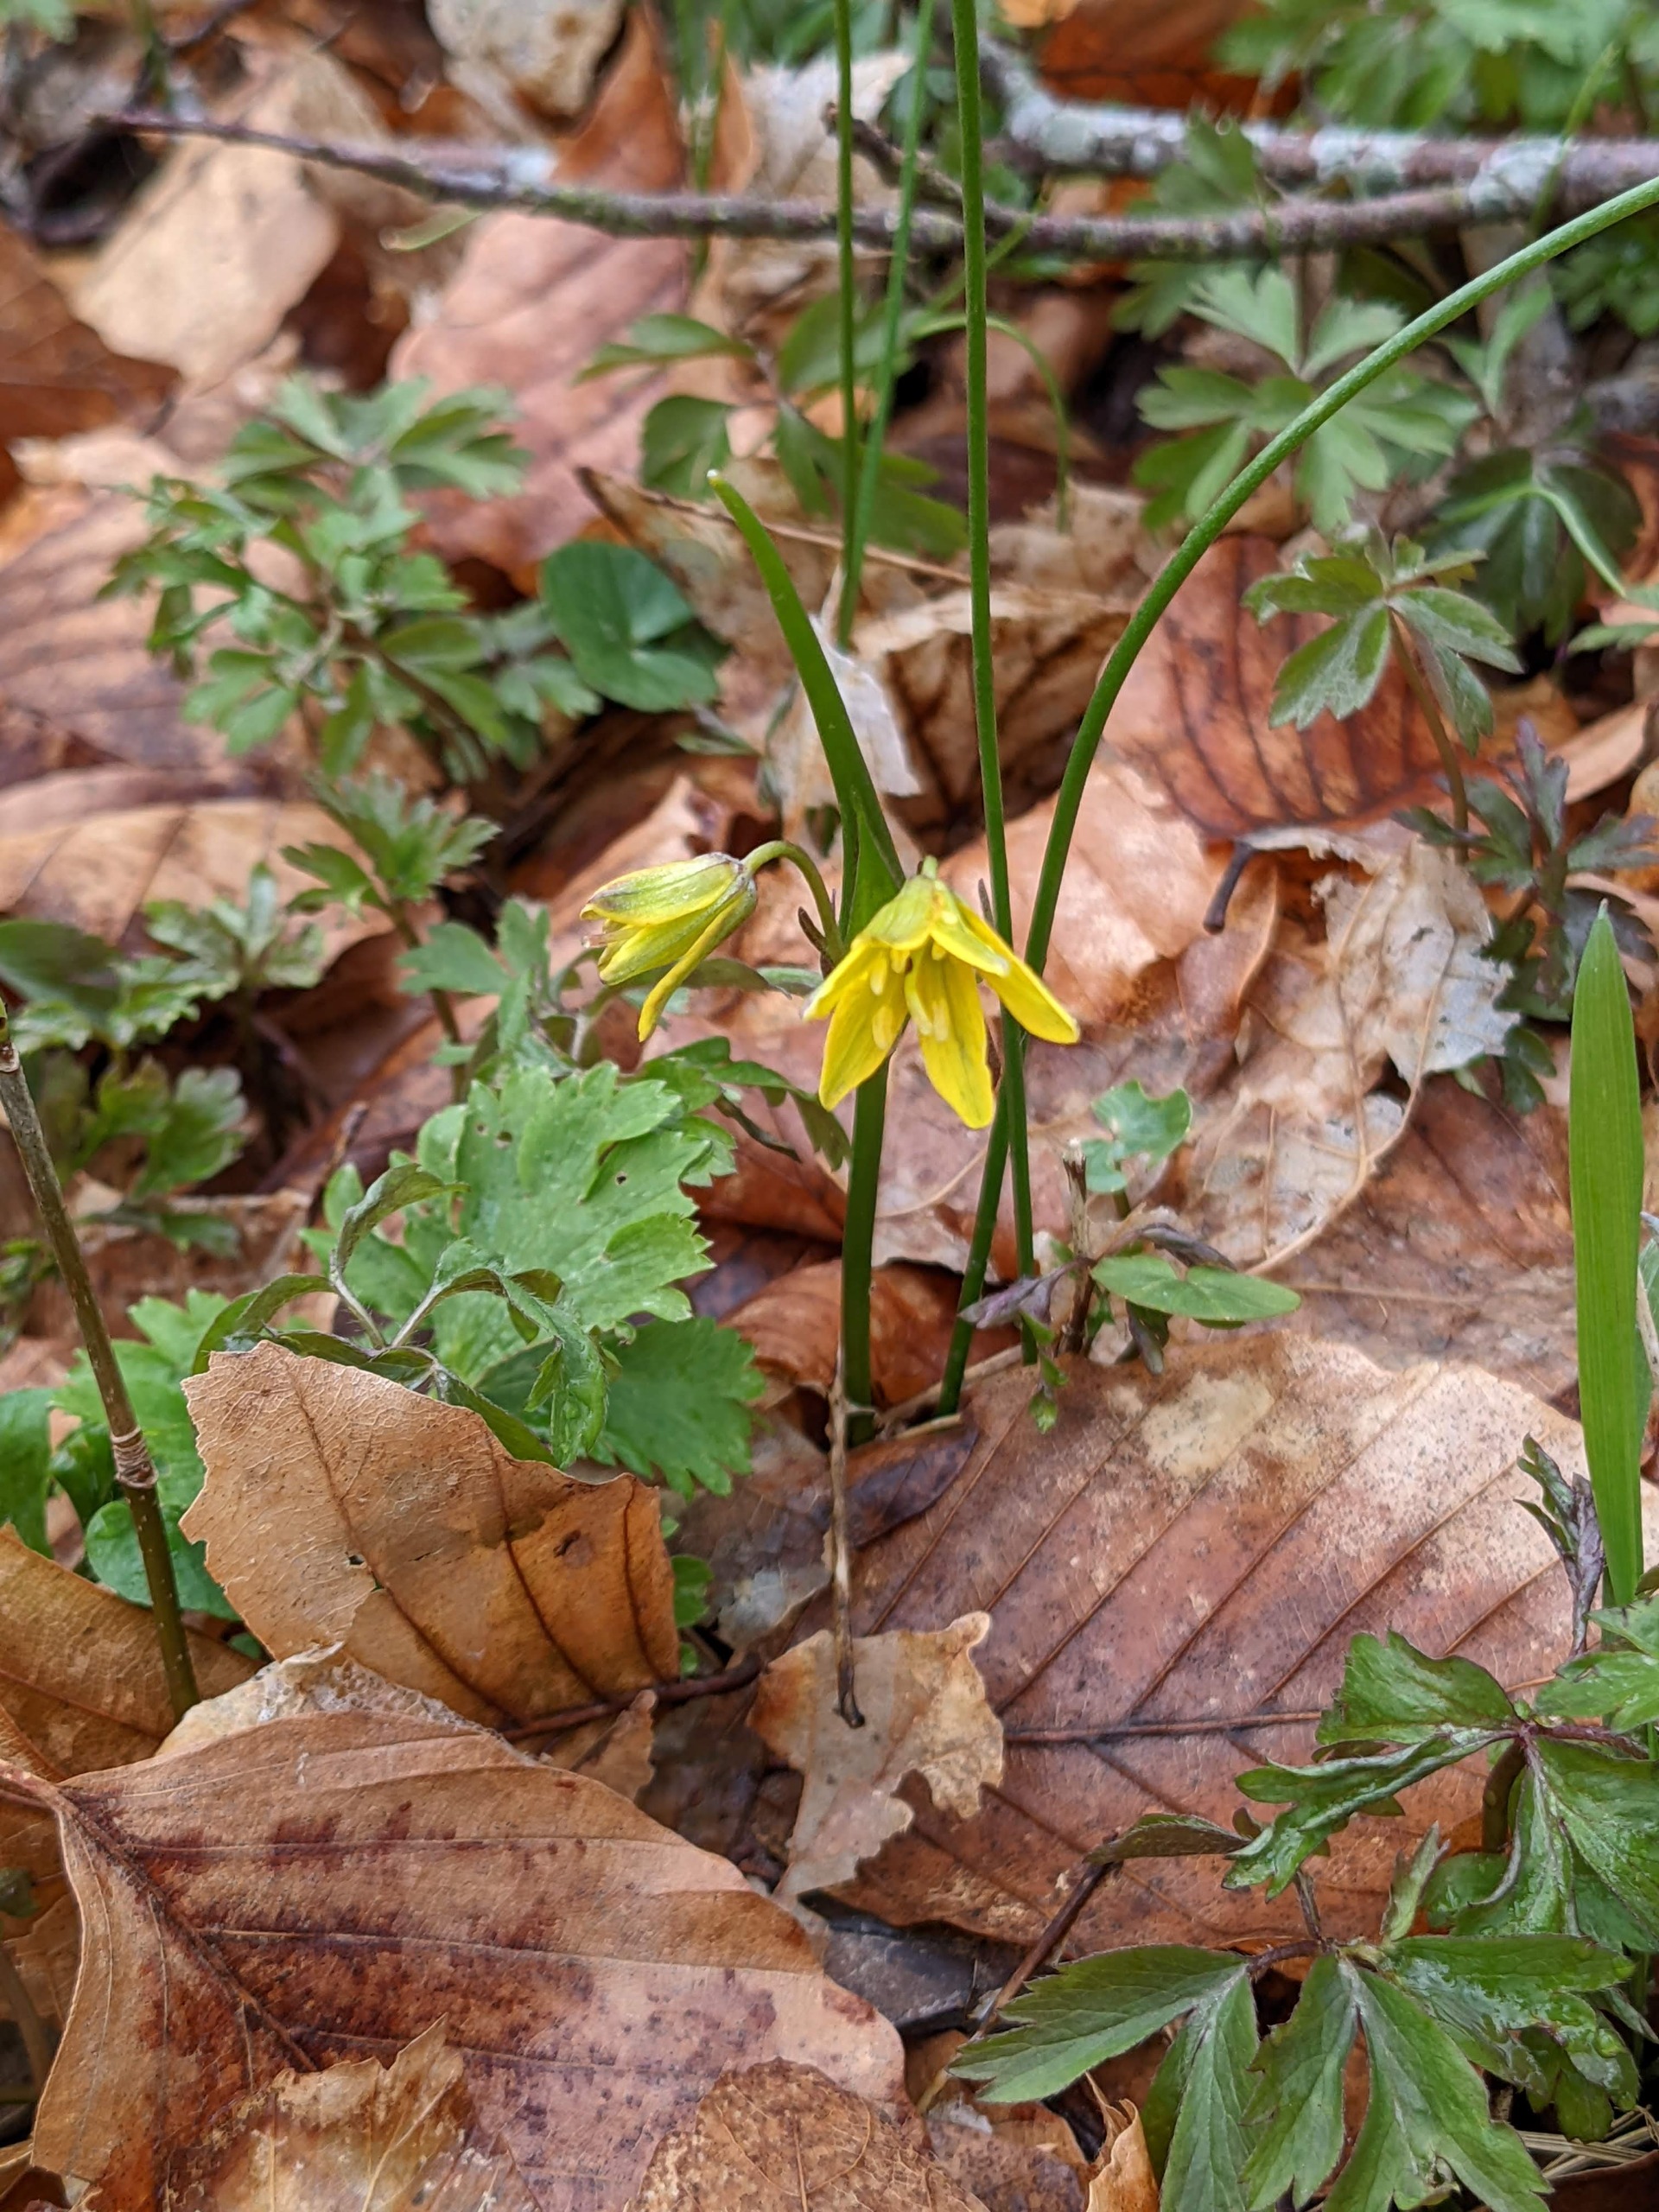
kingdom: Plantae
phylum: Tracheophyta
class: Liliopsida
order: Liliales
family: Liliaceae
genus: Gagea
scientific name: Gagea spathacea
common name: Hylster-guldstjerne
